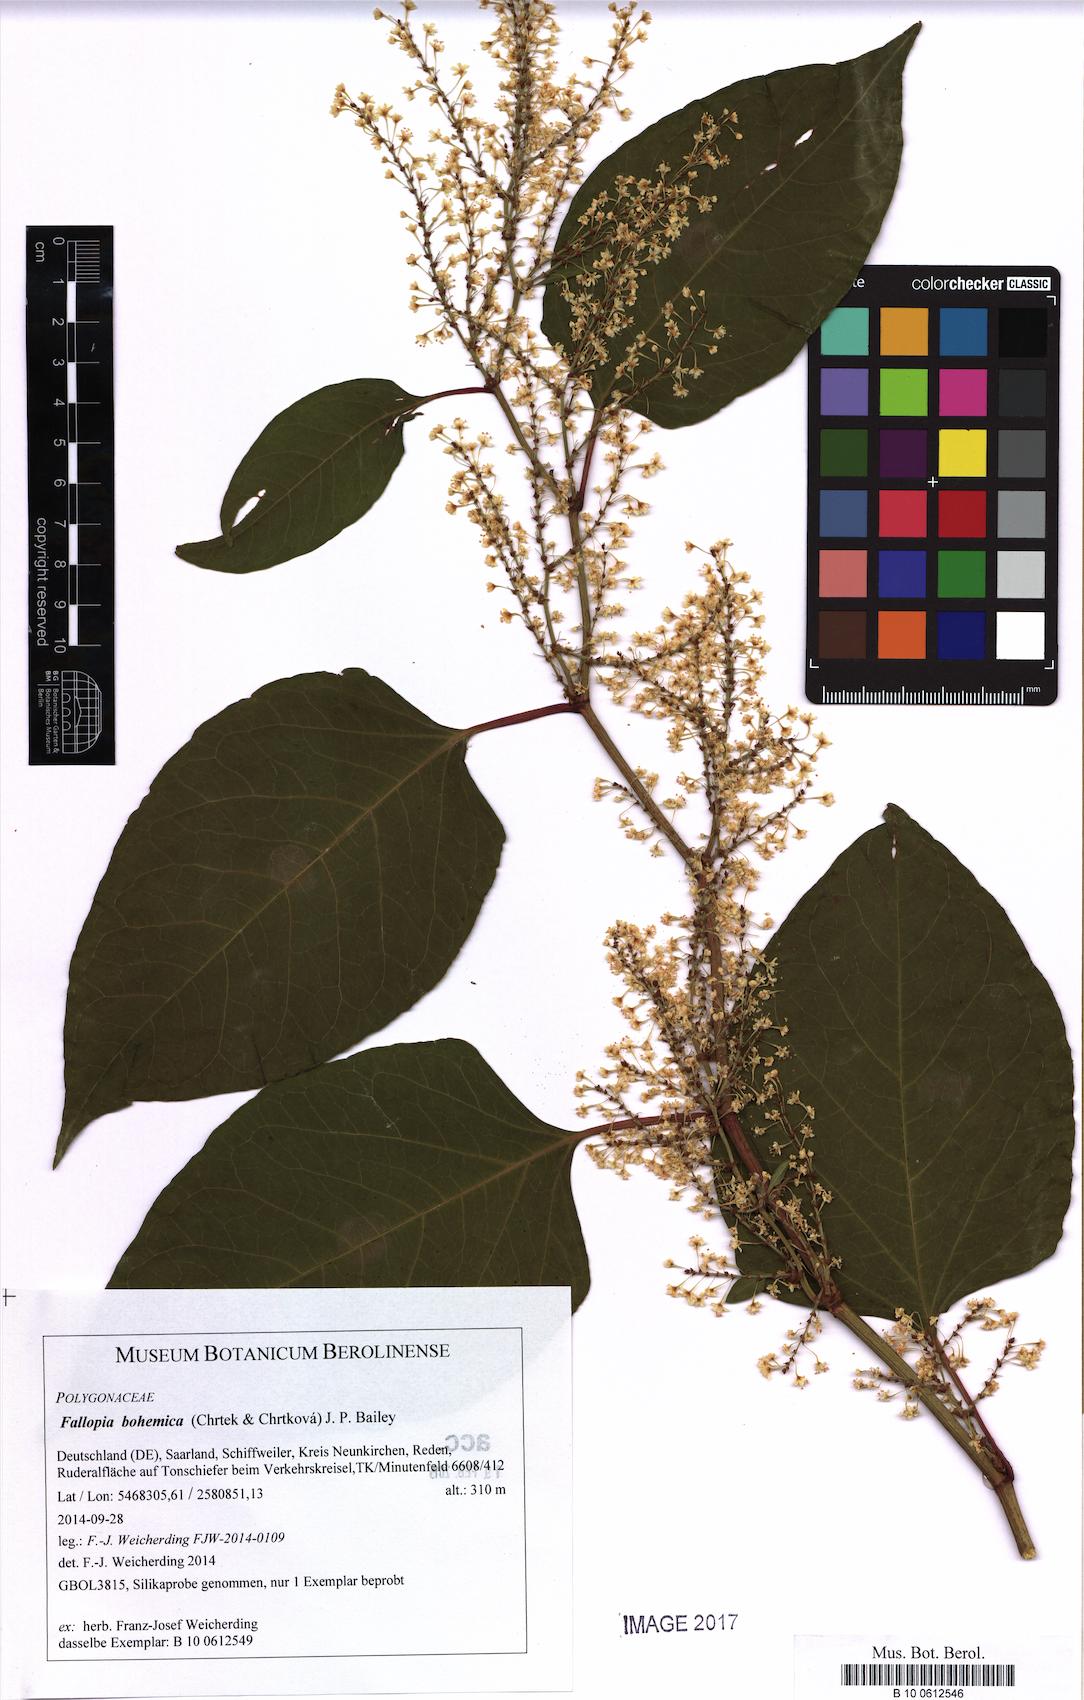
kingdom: Plantae
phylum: Tracheophyta
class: Magnoliopsida
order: Caryophyllales
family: Polygonaceae
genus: Reynoutria
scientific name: Reynoutria bohemica
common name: Bohemian knotweed
